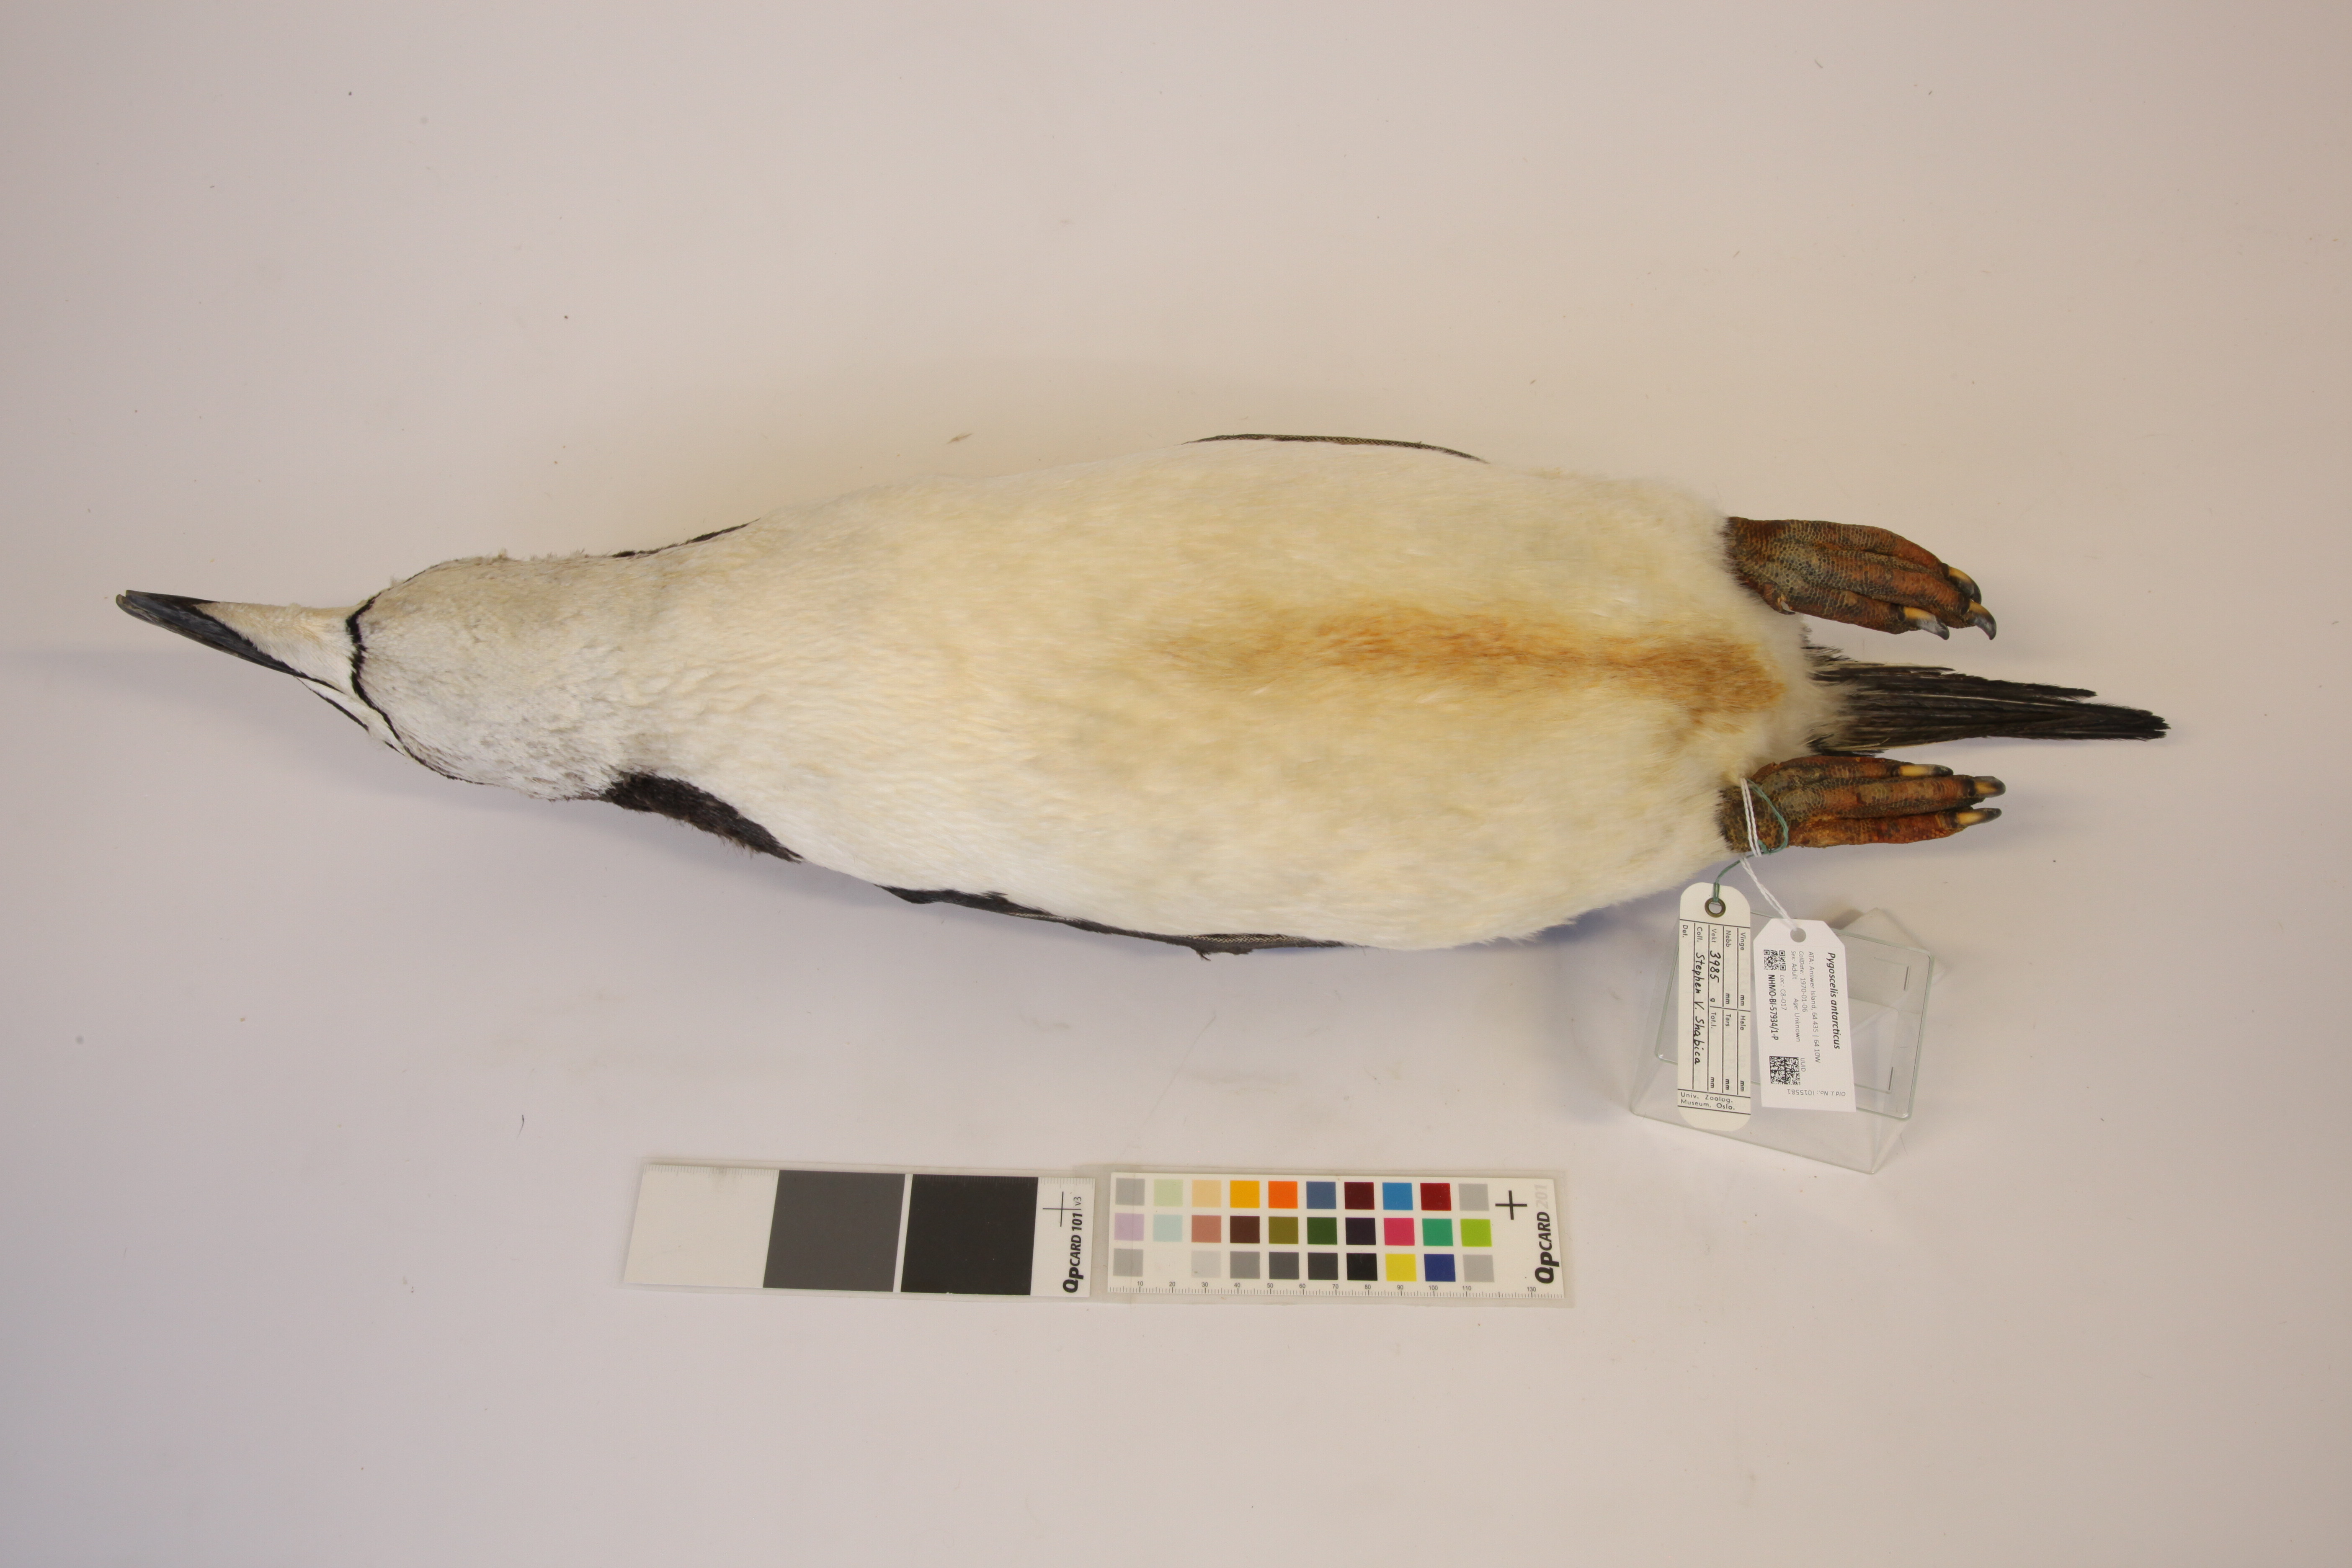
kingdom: Animalia
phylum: Chordata
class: Aves
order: Sphenisciformes
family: Spheniscidae
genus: Pygoscelis
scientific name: Pygoscelis antarcticus
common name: Chinstrap penguin
